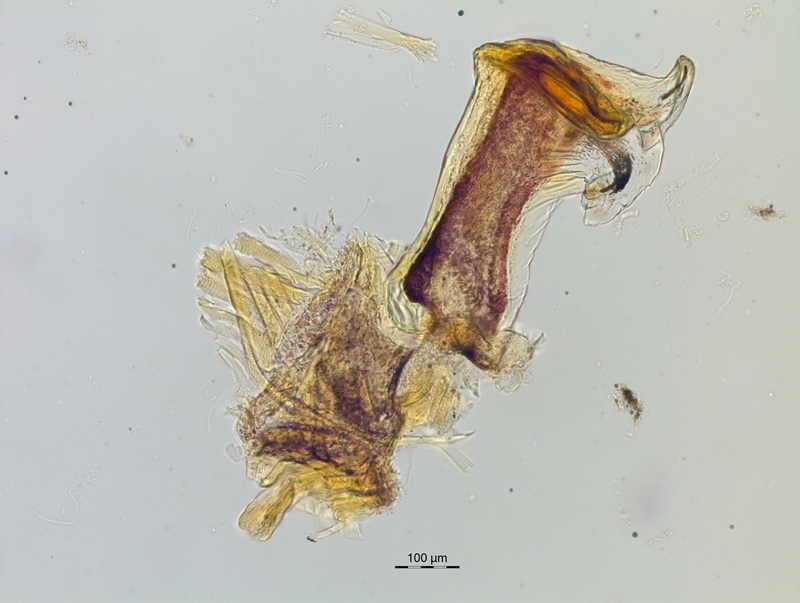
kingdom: Animalia
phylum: Arthropoda
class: Diplopoda
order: Chordeumatida
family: Craspedosomatidae
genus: Craspedosoma
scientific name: Craspedosoma simile
